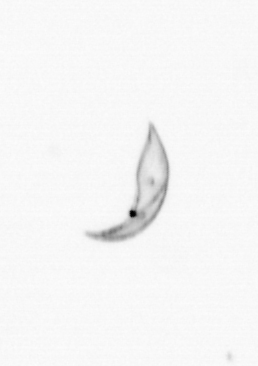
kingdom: Chromista
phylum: Ochrophyta
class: Bacillariophyceae
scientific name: Bacillariophyceae
